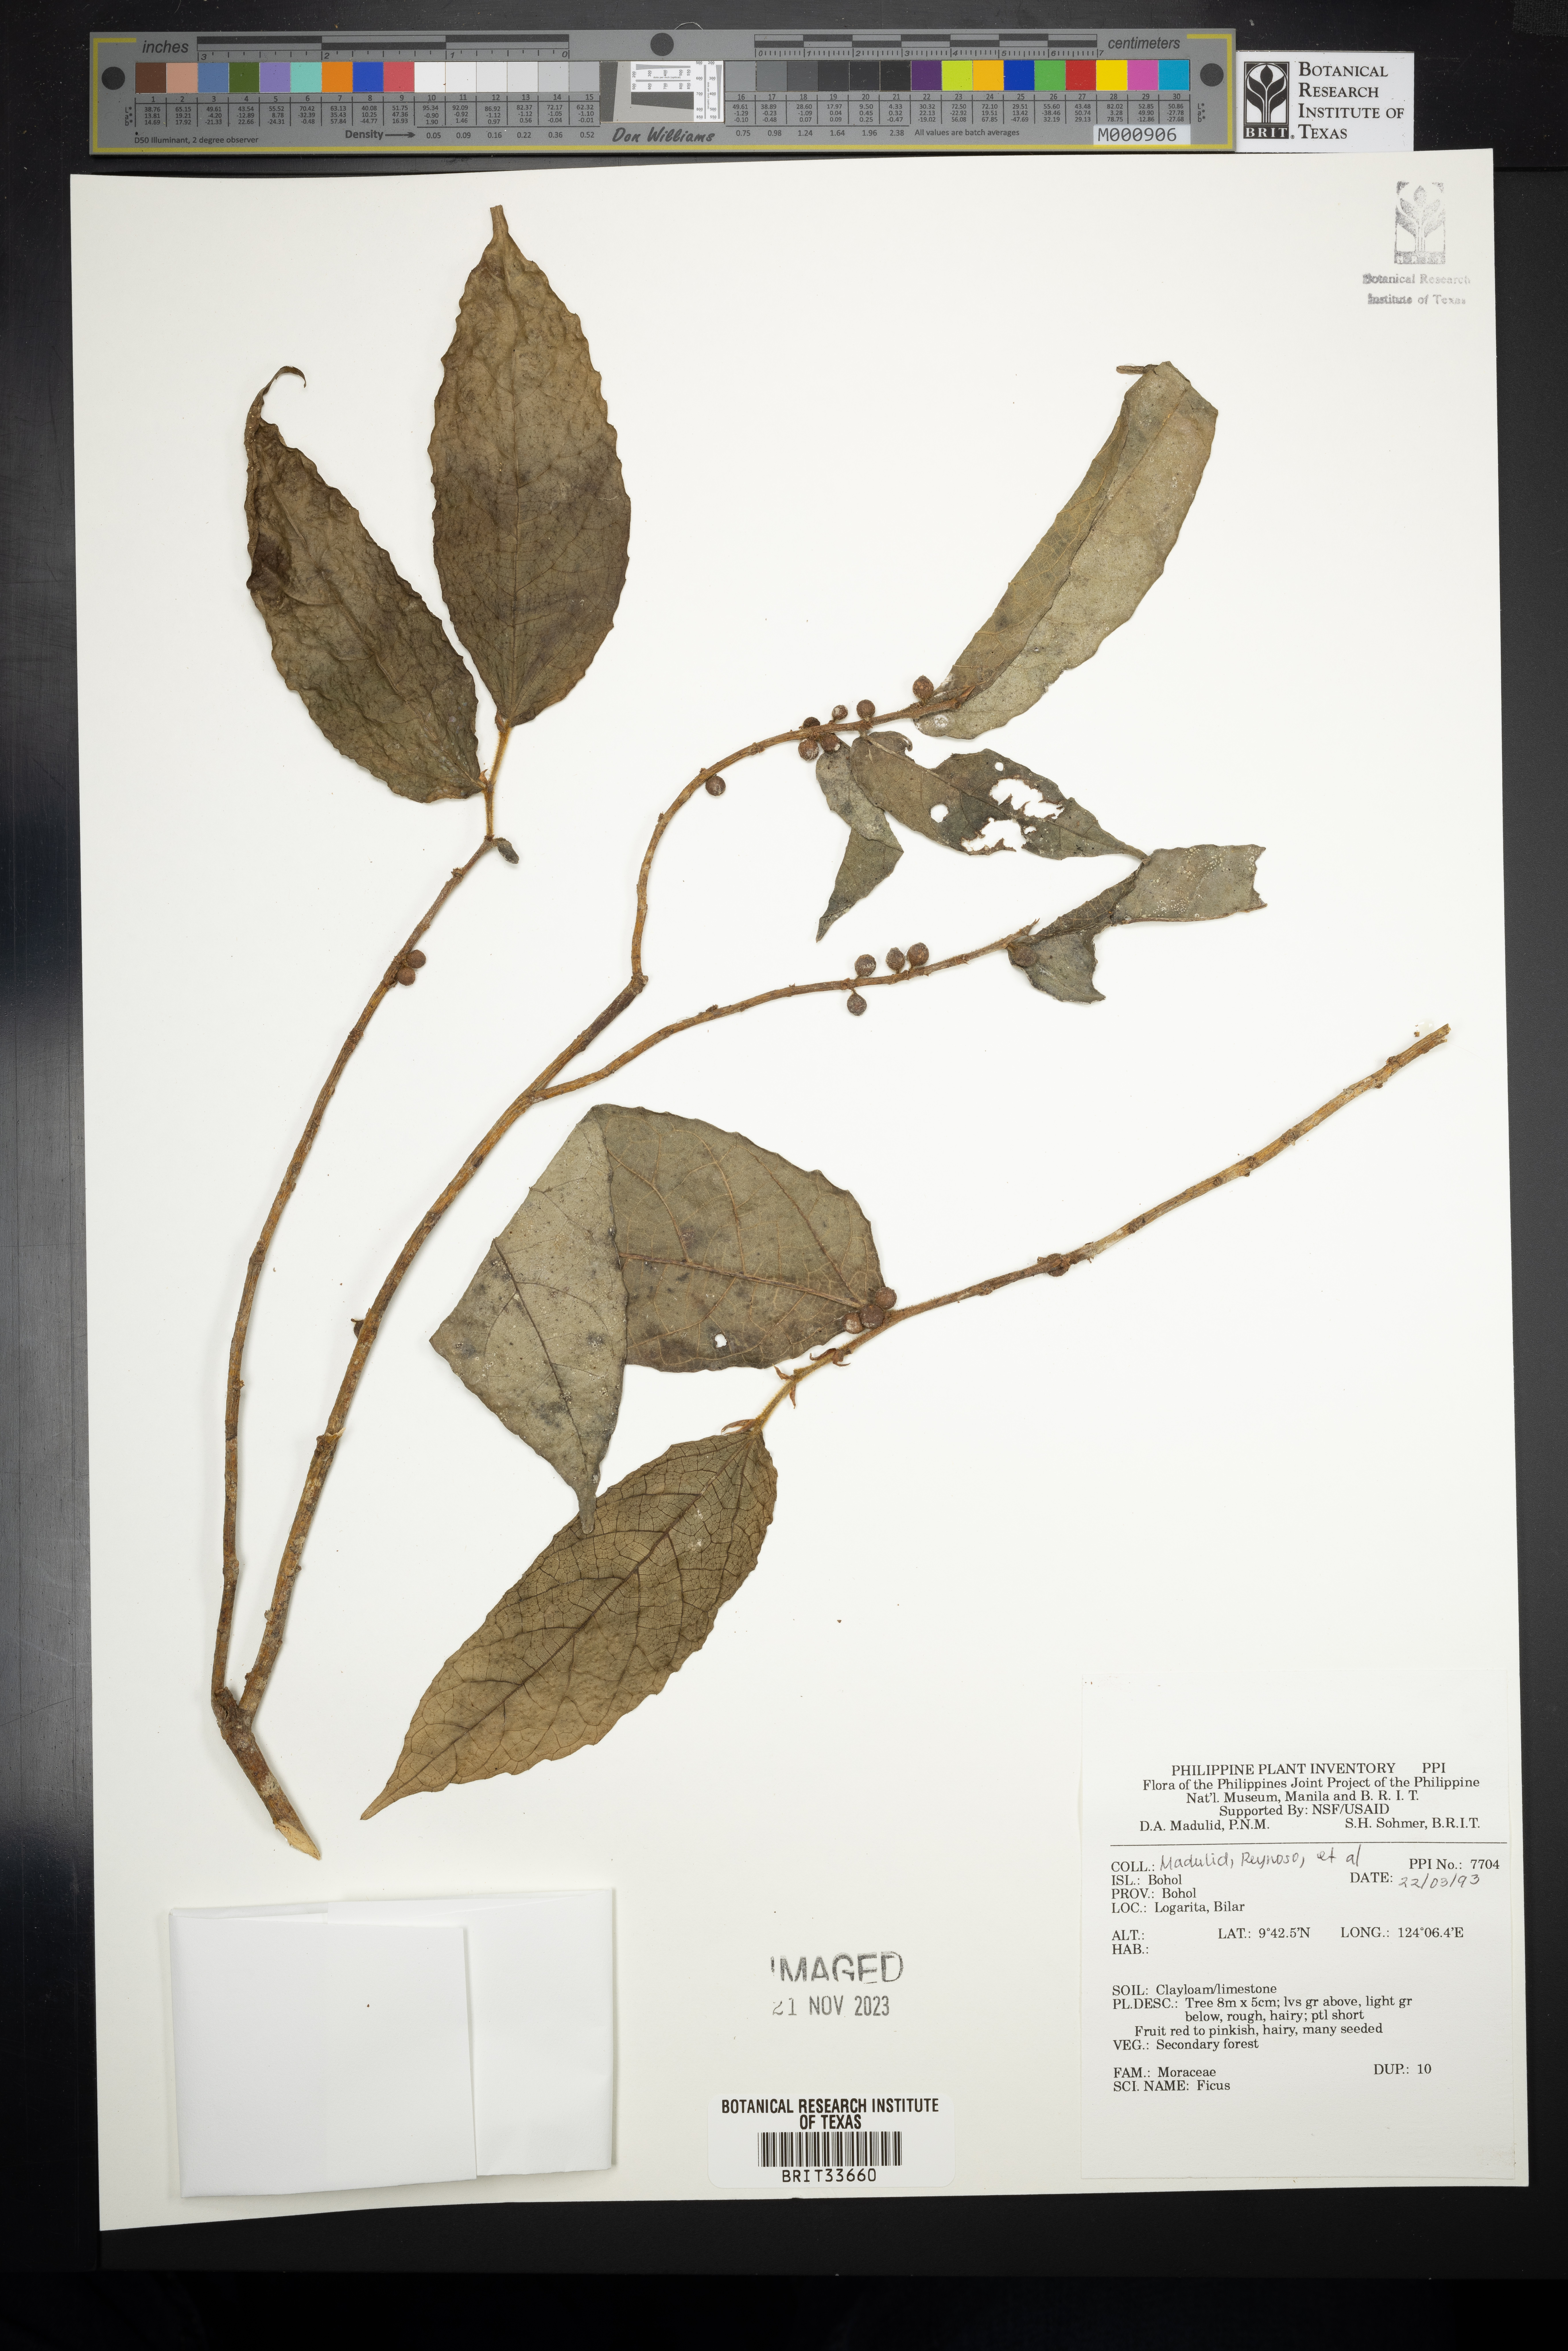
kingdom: Plantae
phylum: Tracheophyta
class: Magnoliopsida
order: Rosales
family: Moraceae
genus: Ficus
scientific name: Ficus
